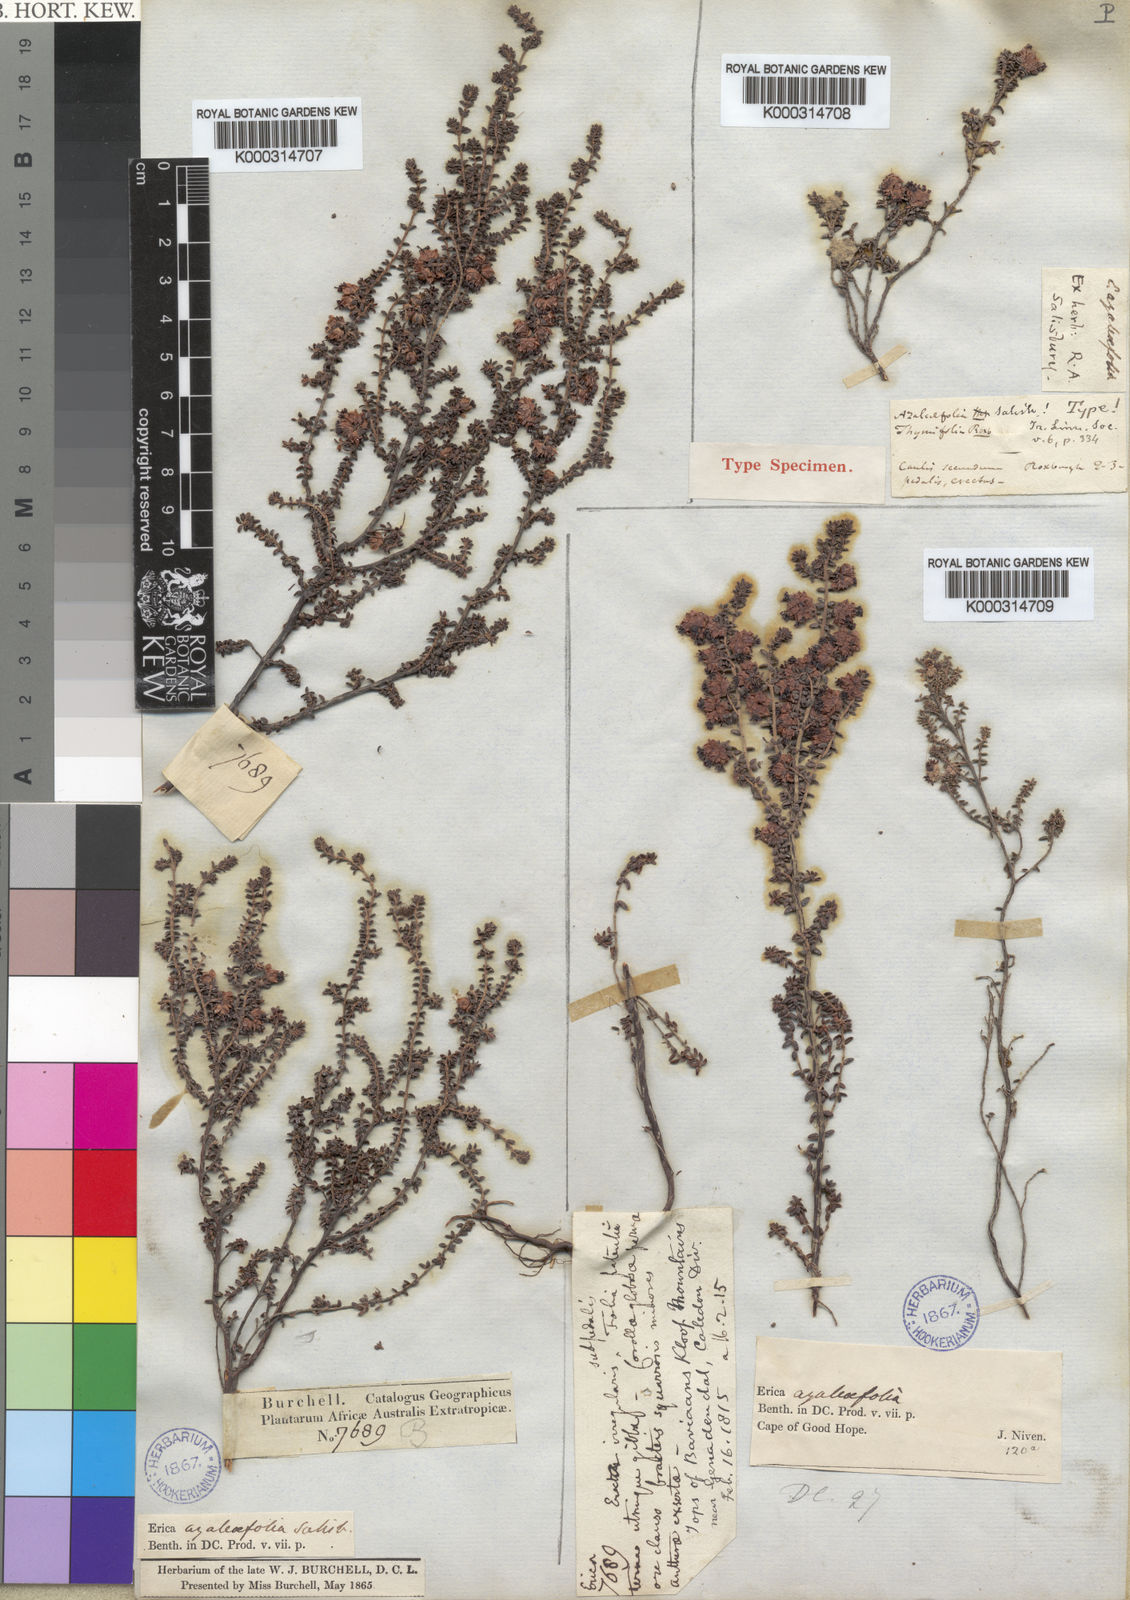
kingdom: Plantae
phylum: Tracheophyta
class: Magnoliopsida
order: Ericales
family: Ericaceae
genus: Erica
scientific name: Erica azaleifolia
